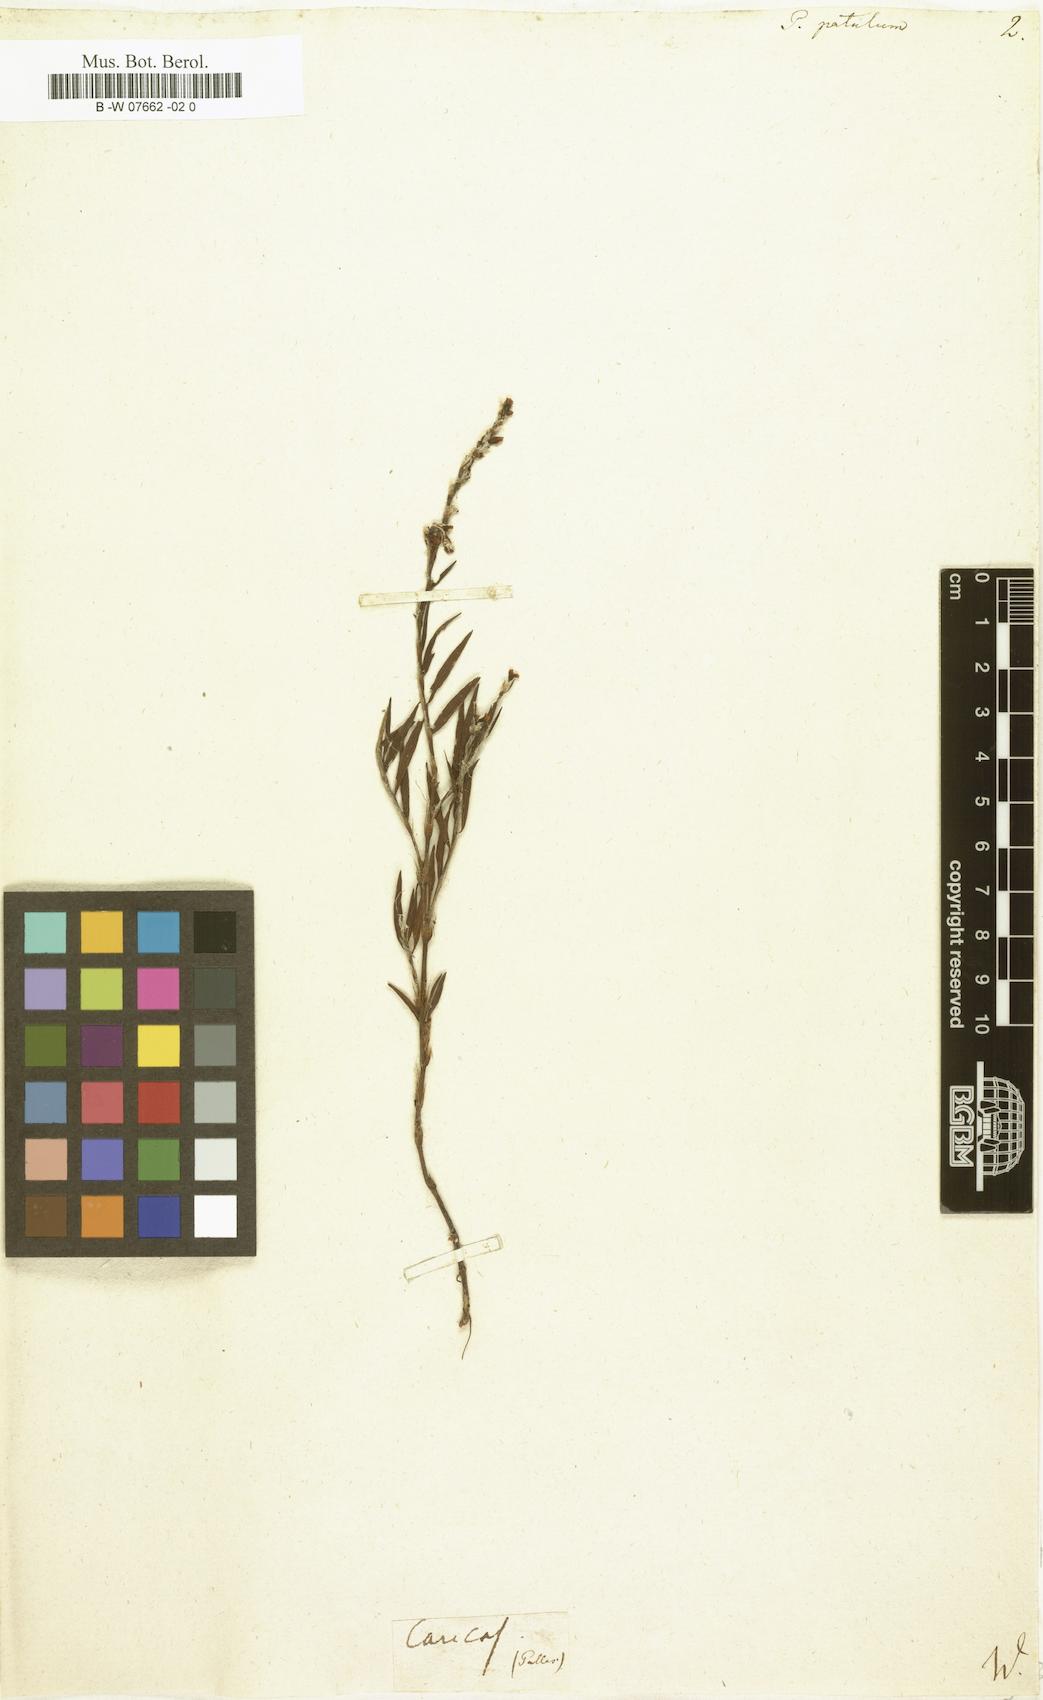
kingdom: Plantae
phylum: Tracheophyta
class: Magnoliopsida
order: Caryophyllales
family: Polygonaceae
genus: Polygonum
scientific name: Polygonum patulum
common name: Red-knotgrass
